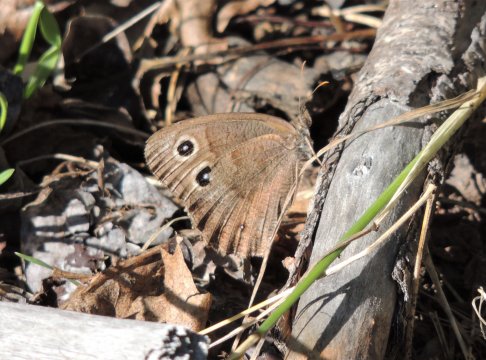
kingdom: Animalia
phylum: Arthropoda
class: Insecta
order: Lepidoptera
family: Nymphalidae
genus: Cercyonis
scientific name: Cercyonis pegala
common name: Common Wood-Nymph
